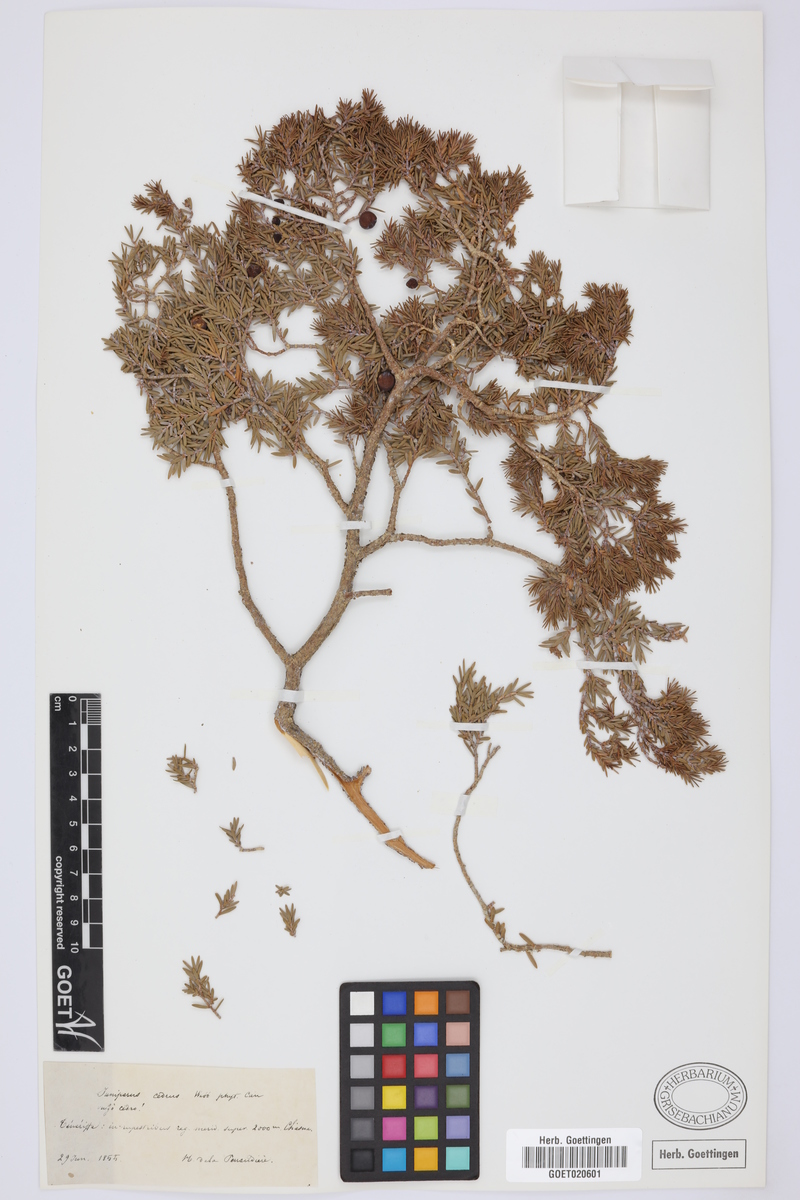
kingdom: Plantae
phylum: Tracheophyta
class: Pinopsida
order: Pinales
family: Cupressaceae
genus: Juniperus
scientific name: Juniperus cedrus
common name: Canary islands juniper
